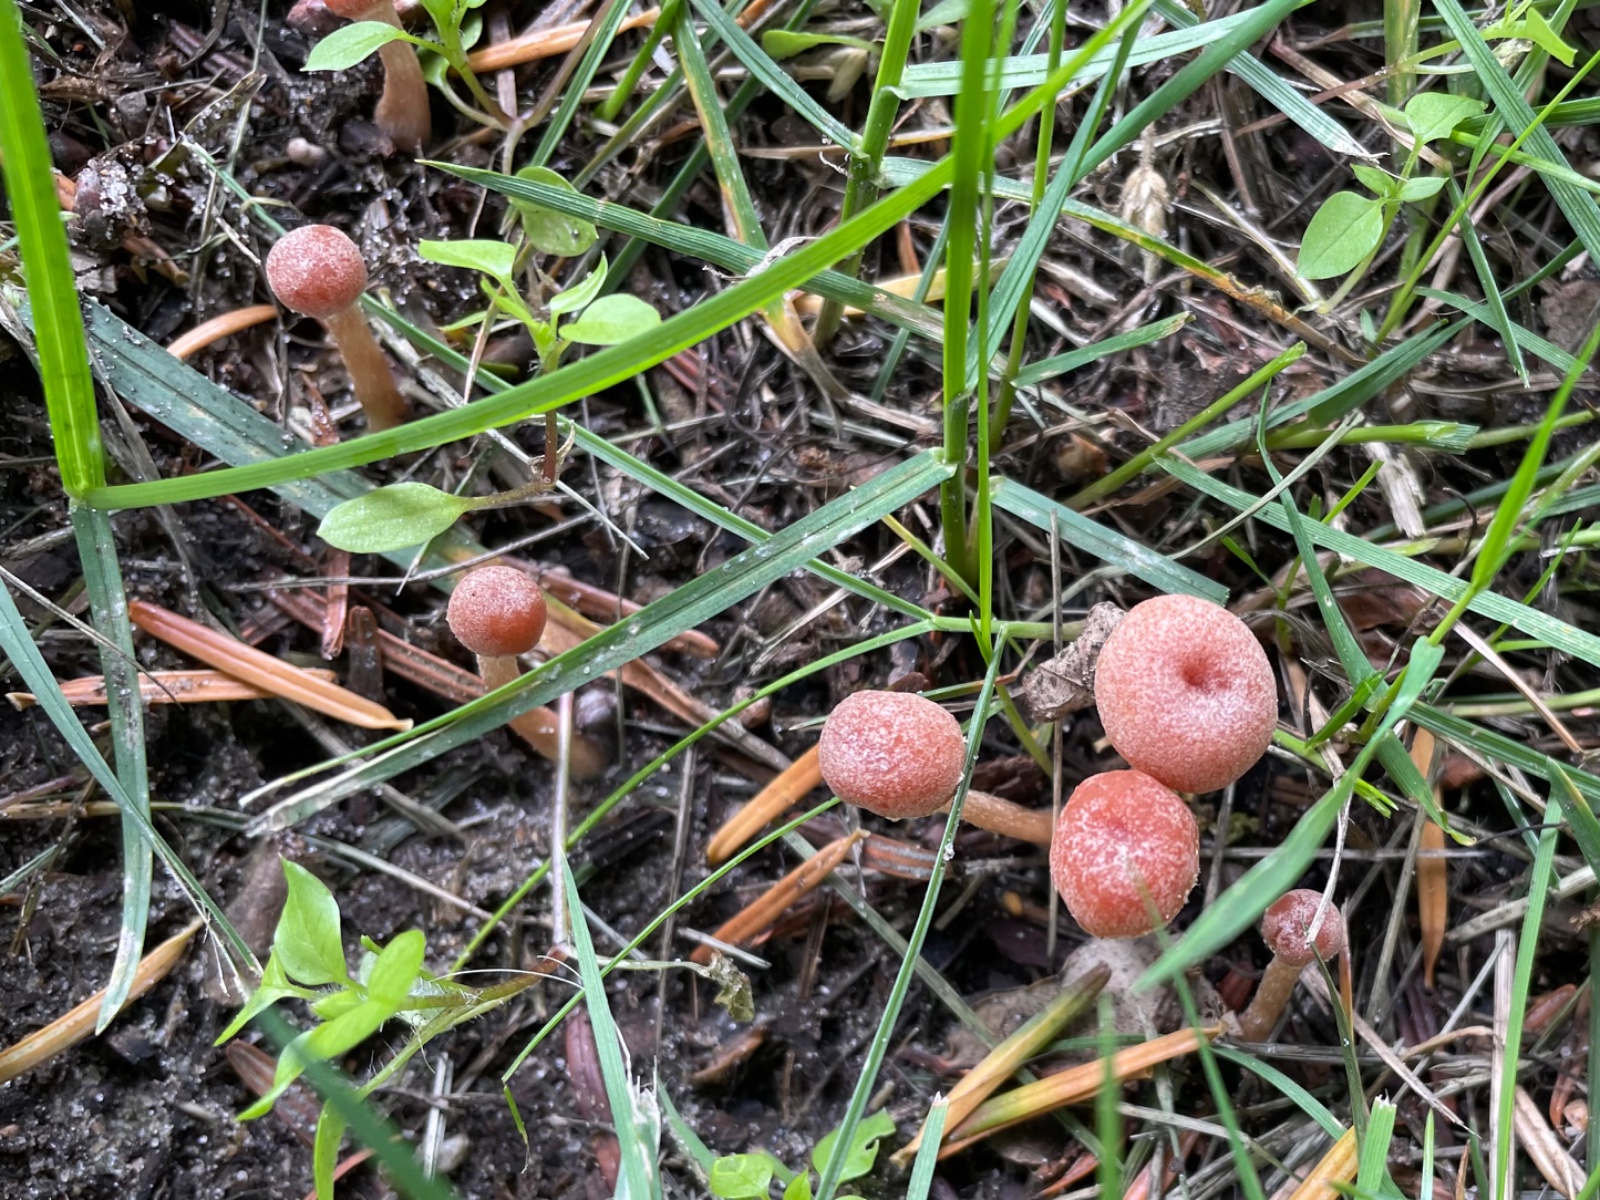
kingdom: Fungi
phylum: Basidiomycota
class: Agaricomycetes
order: Agaricales
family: Tubariaceae
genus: Tubaria
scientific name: Tubaria
